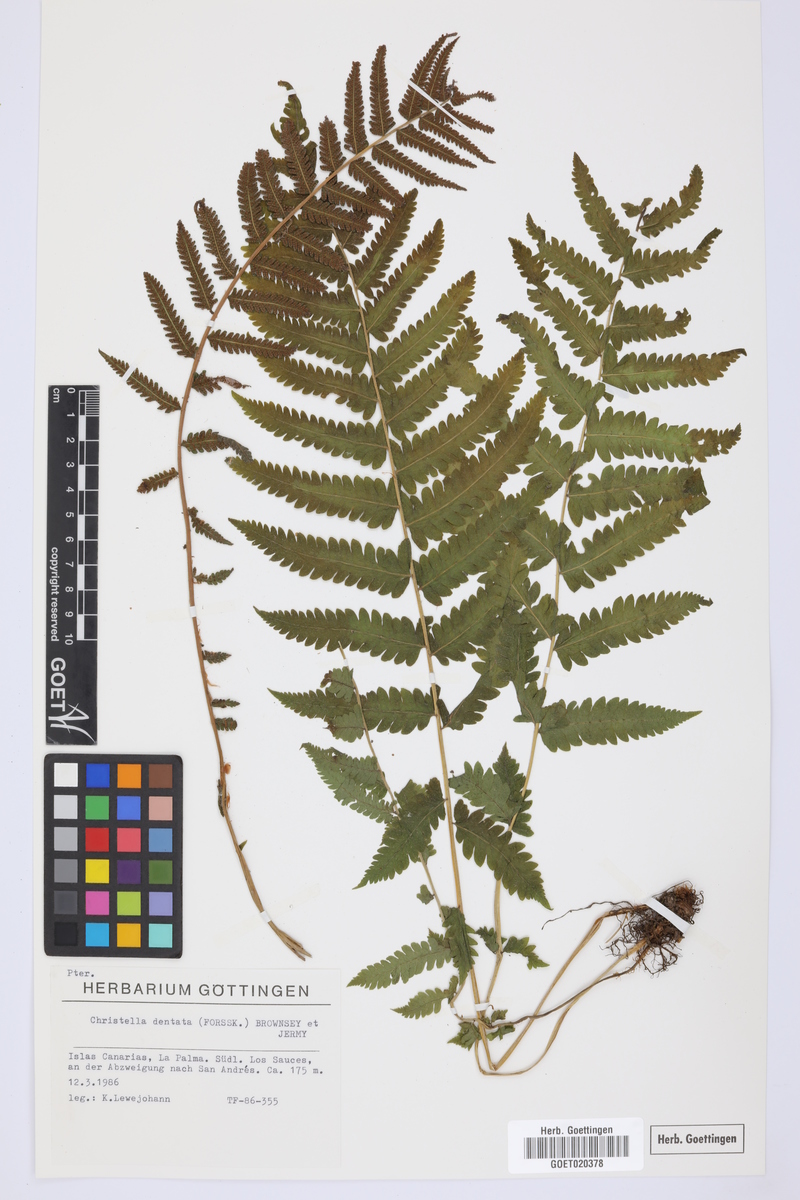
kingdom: Plantae
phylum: Tracheophyta
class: Polypodiopsida
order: Polypodiales
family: Thelypteridaceae
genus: Christella
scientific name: Christella dentata
